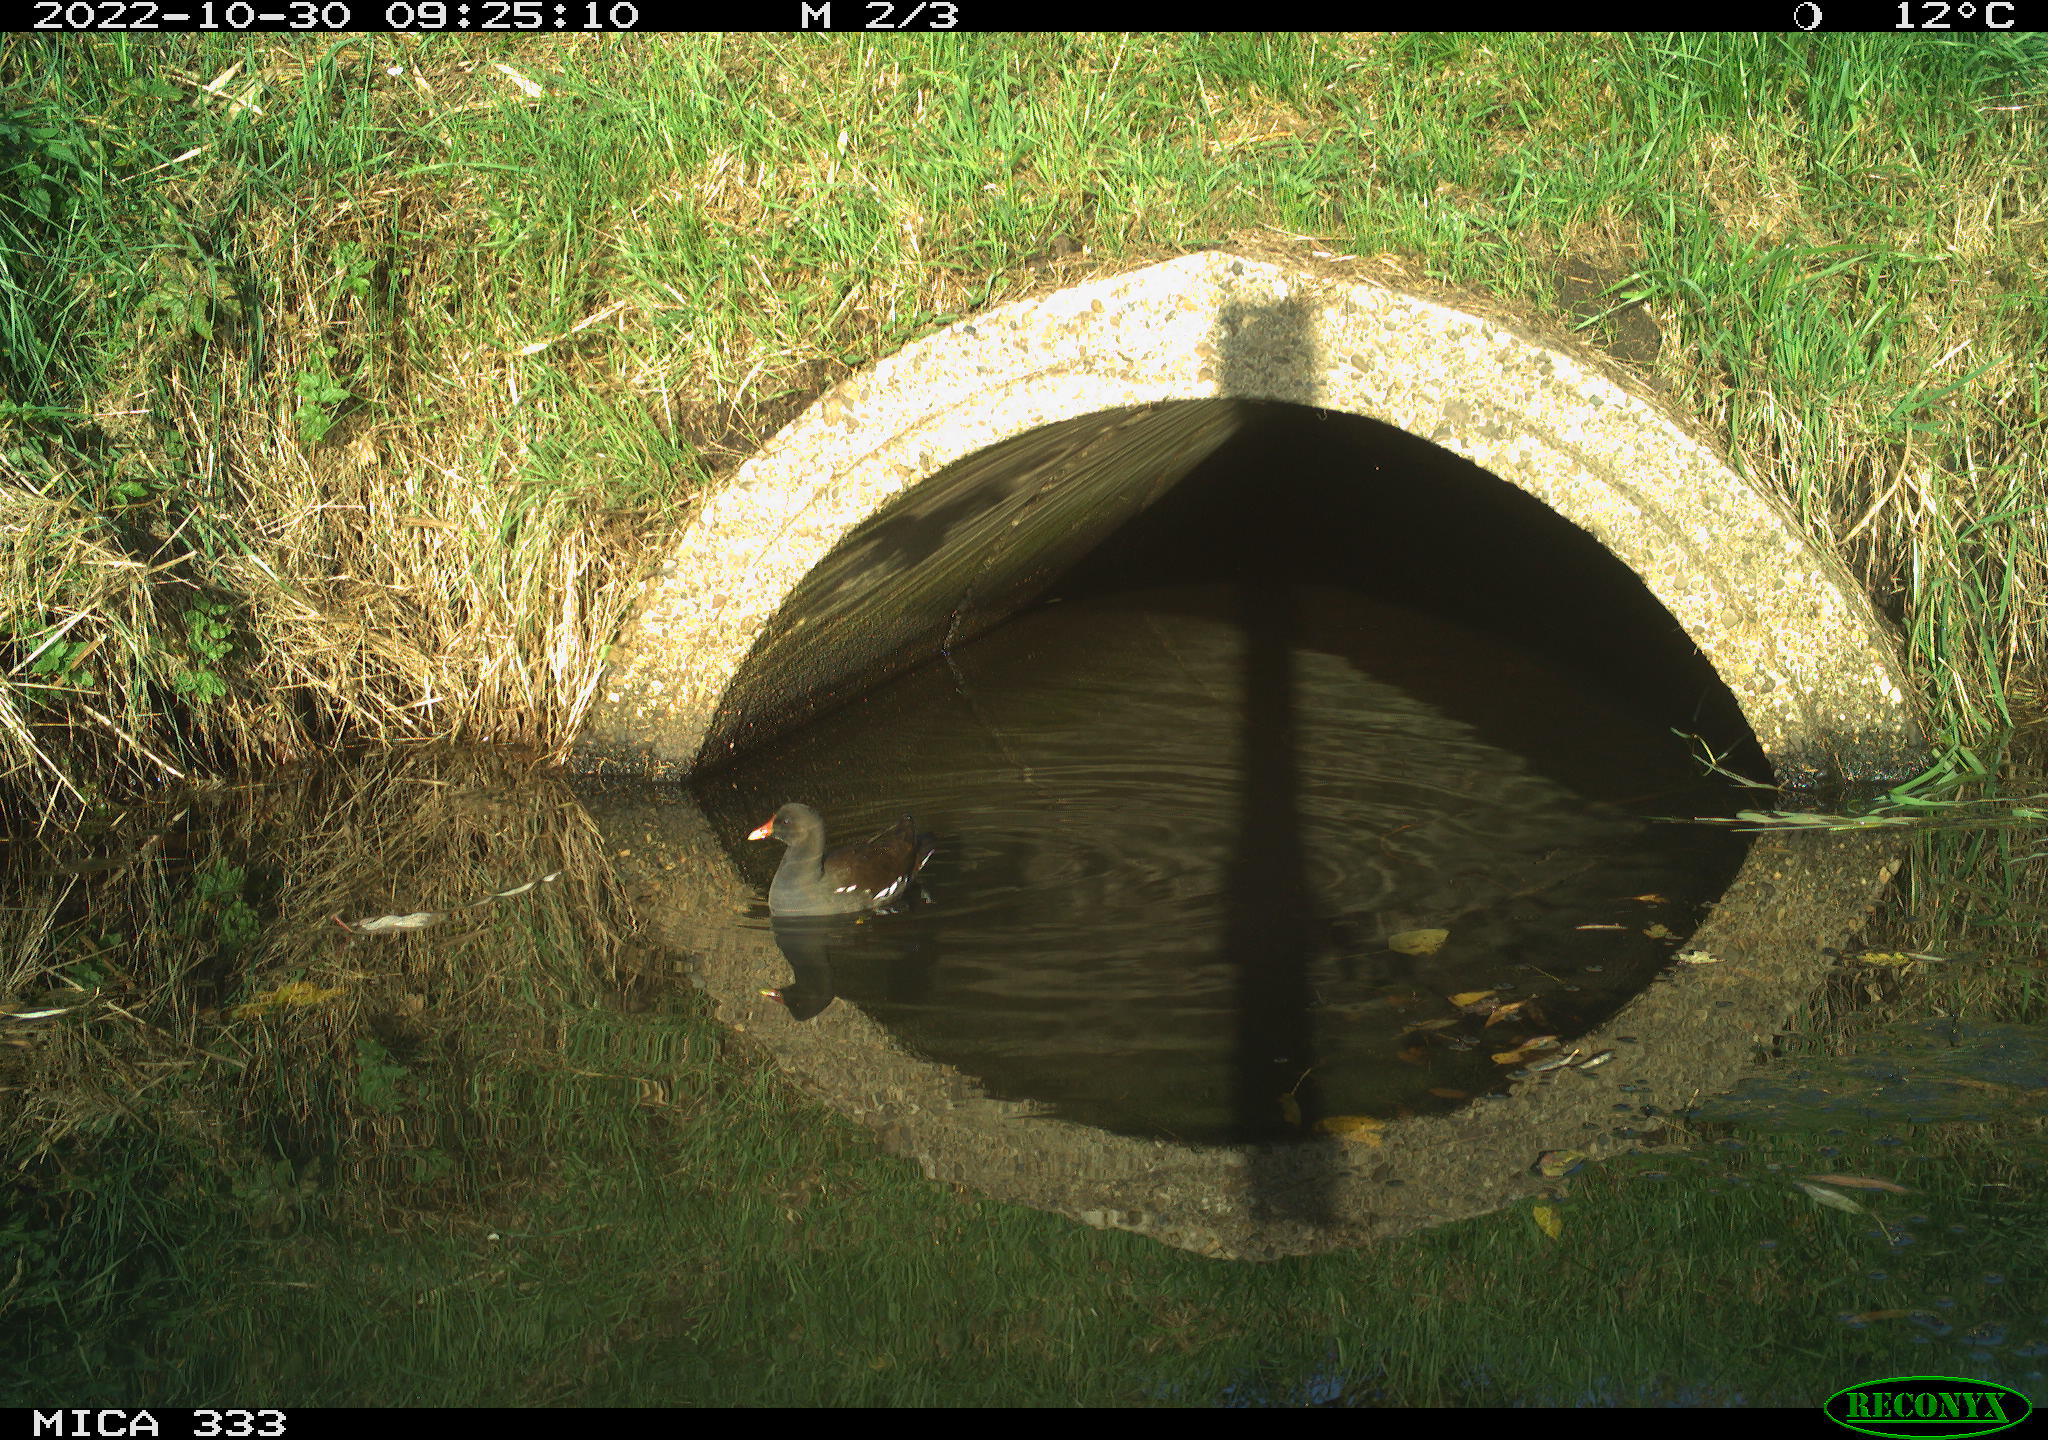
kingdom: Animalia
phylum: Chordata
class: Aves
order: Gruiformes
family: Rallidae
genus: Gallinula
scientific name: Gallinula chloropus
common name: Common moorhen
